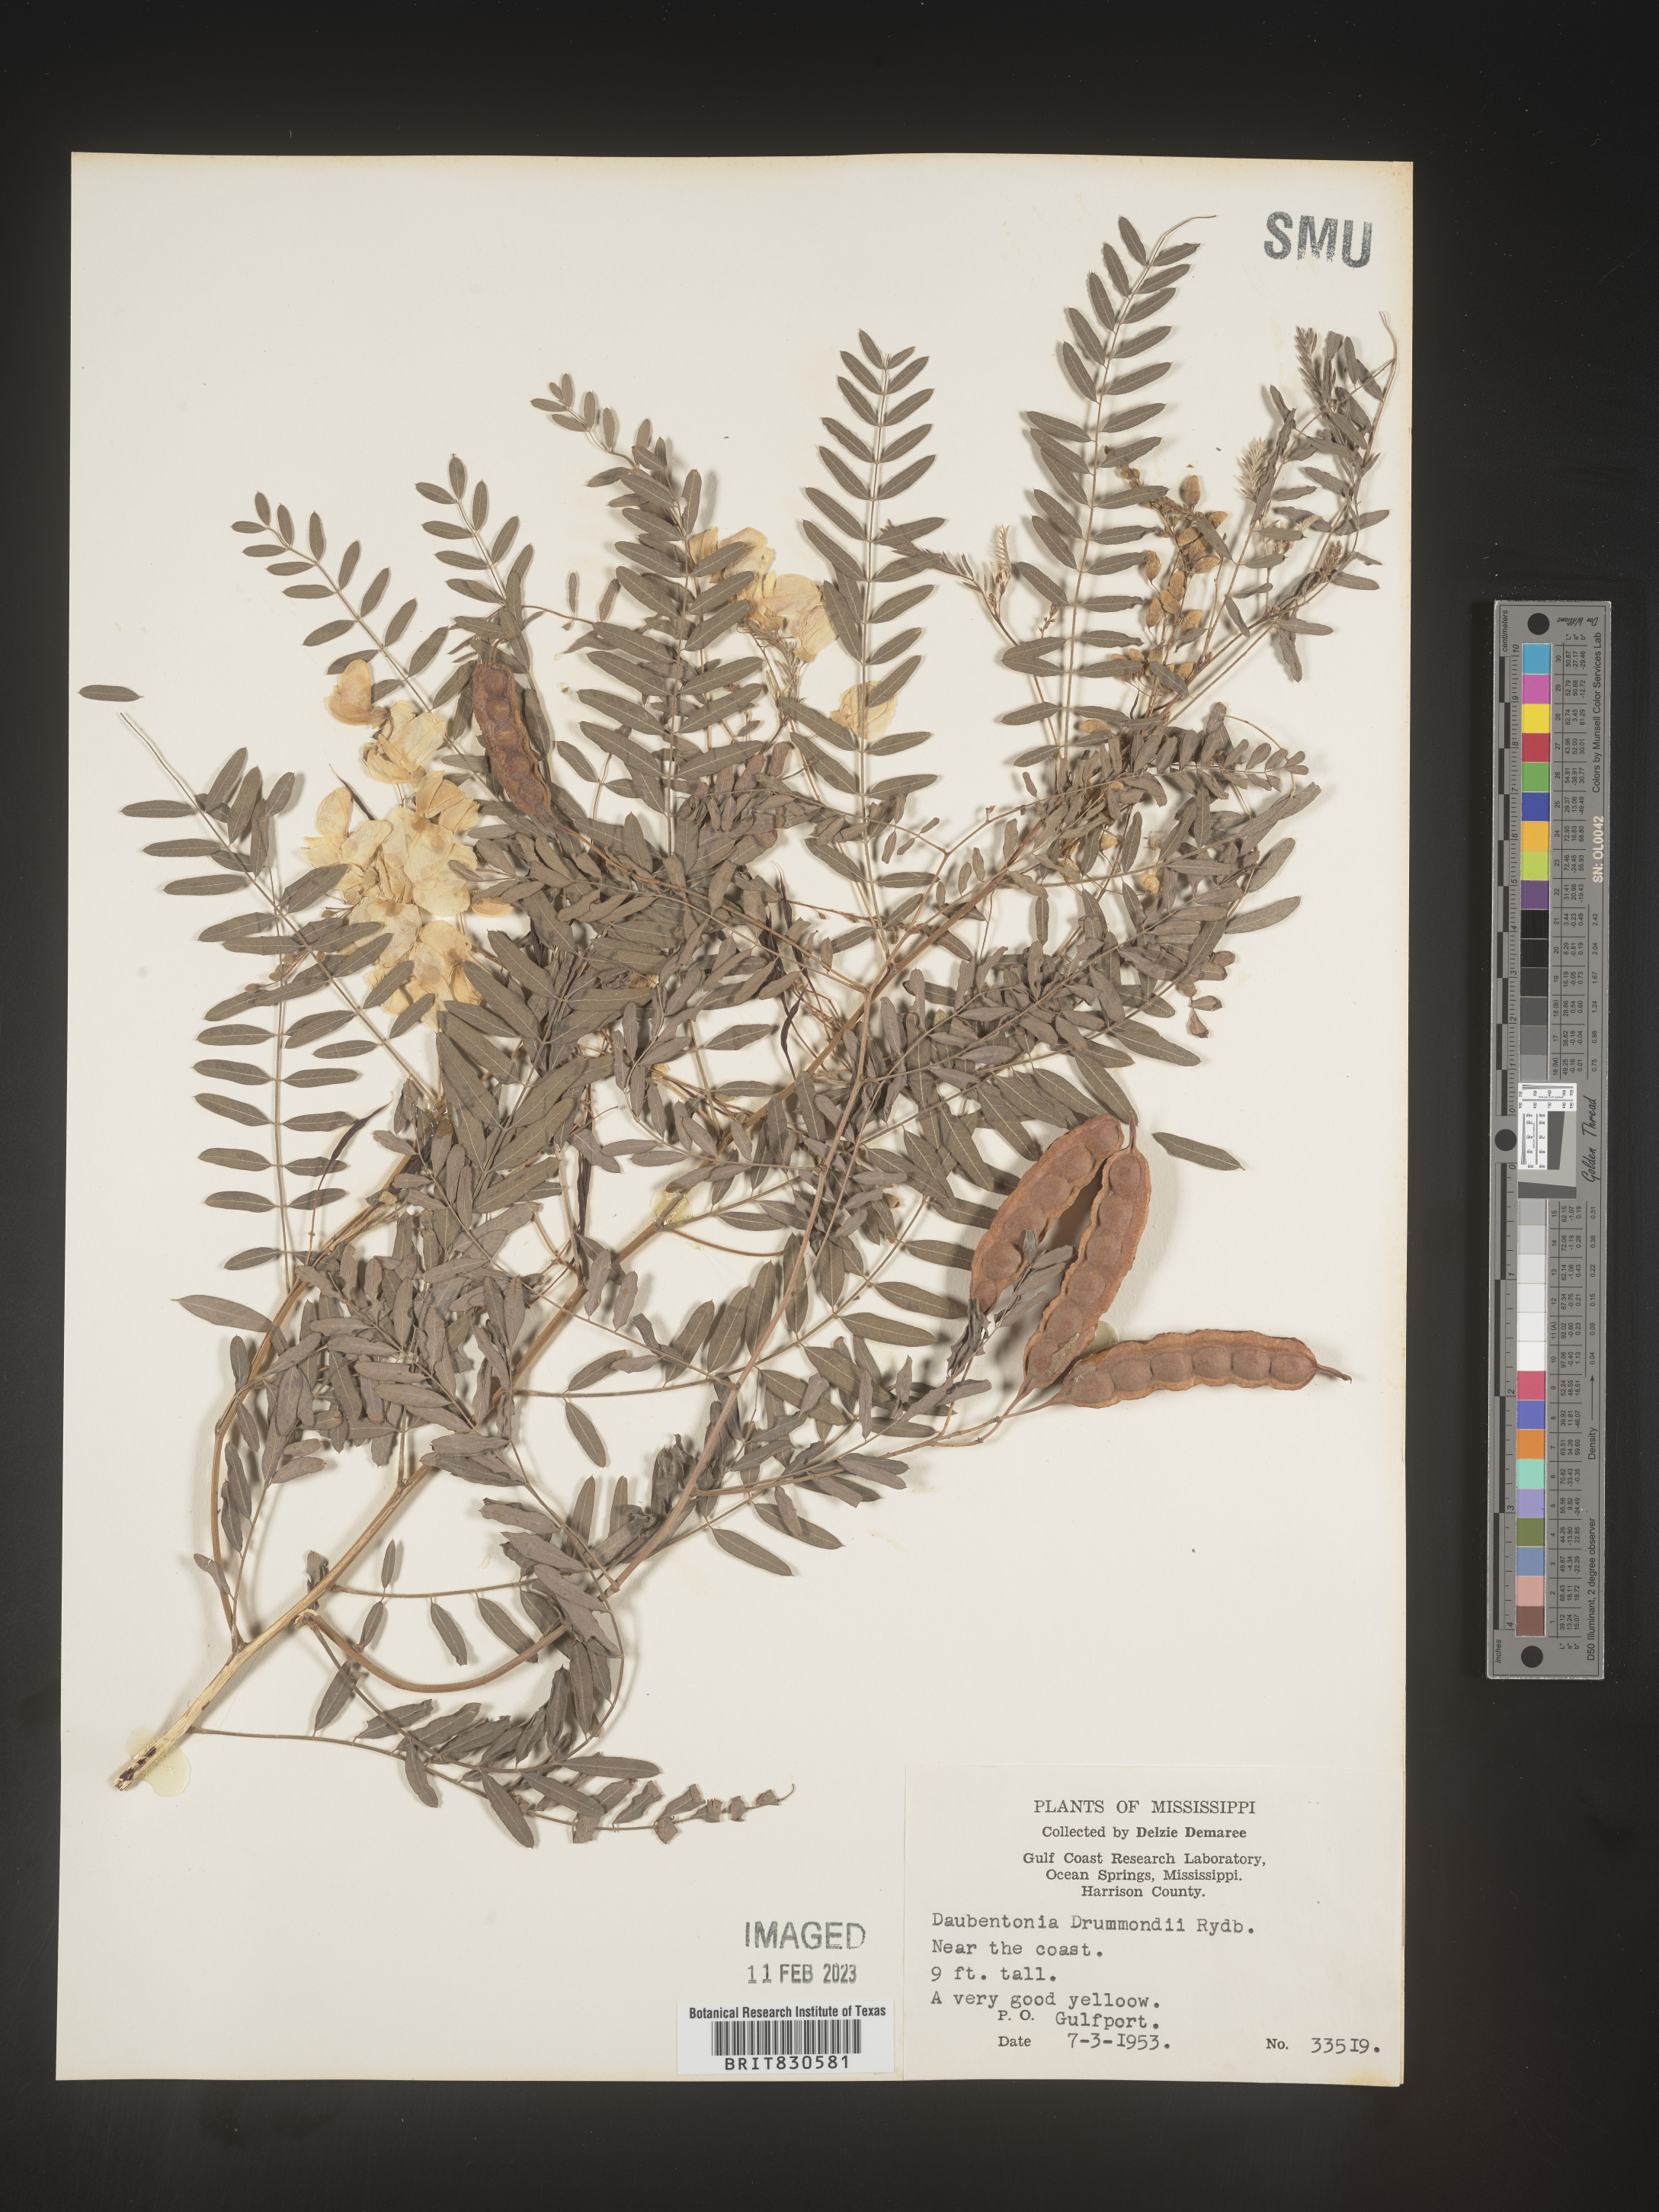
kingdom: Plantae
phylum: Tracheophyta
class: Magnoliopsida
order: Fabales
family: Fabaceae
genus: Sesbania
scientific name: Sesbania drummondii
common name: Poison-bean
